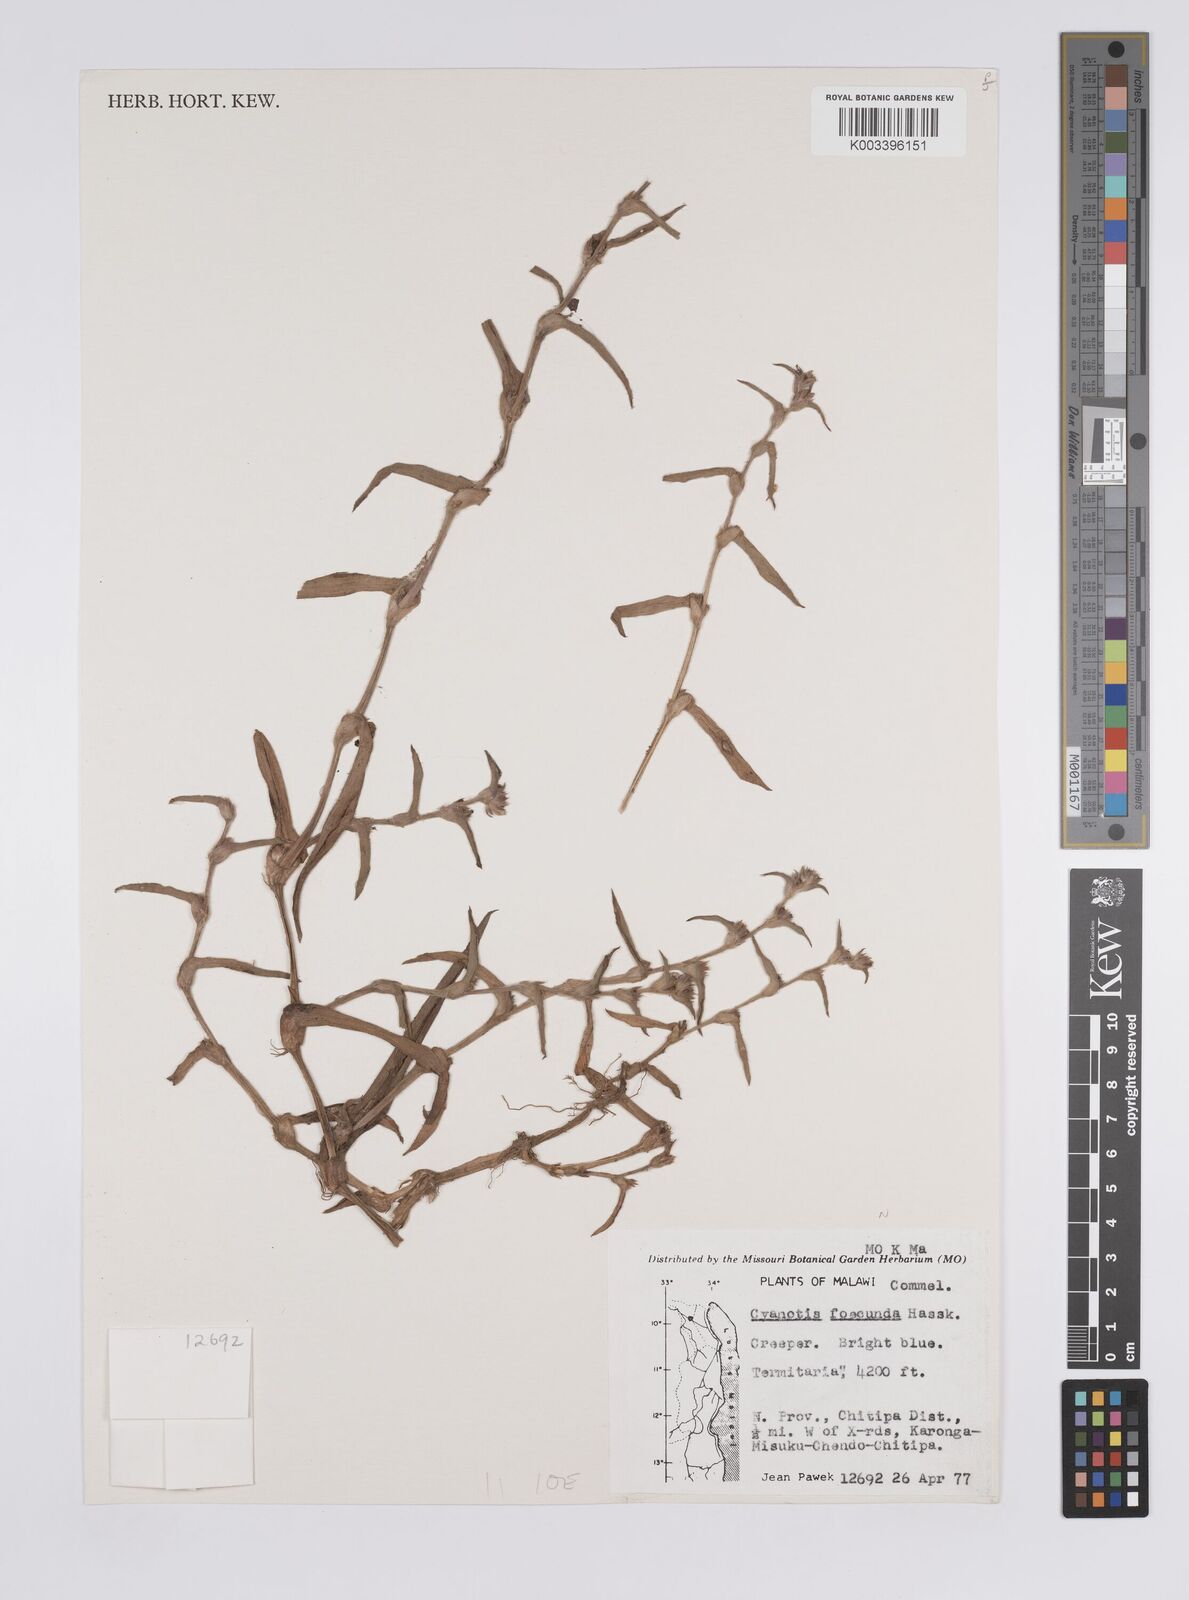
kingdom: Plantae
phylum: Tracheophyta
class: Liliopsida
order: Commelinales
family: Commelinaceae
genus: Cyanotis
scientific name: Cyanotis foecunda
